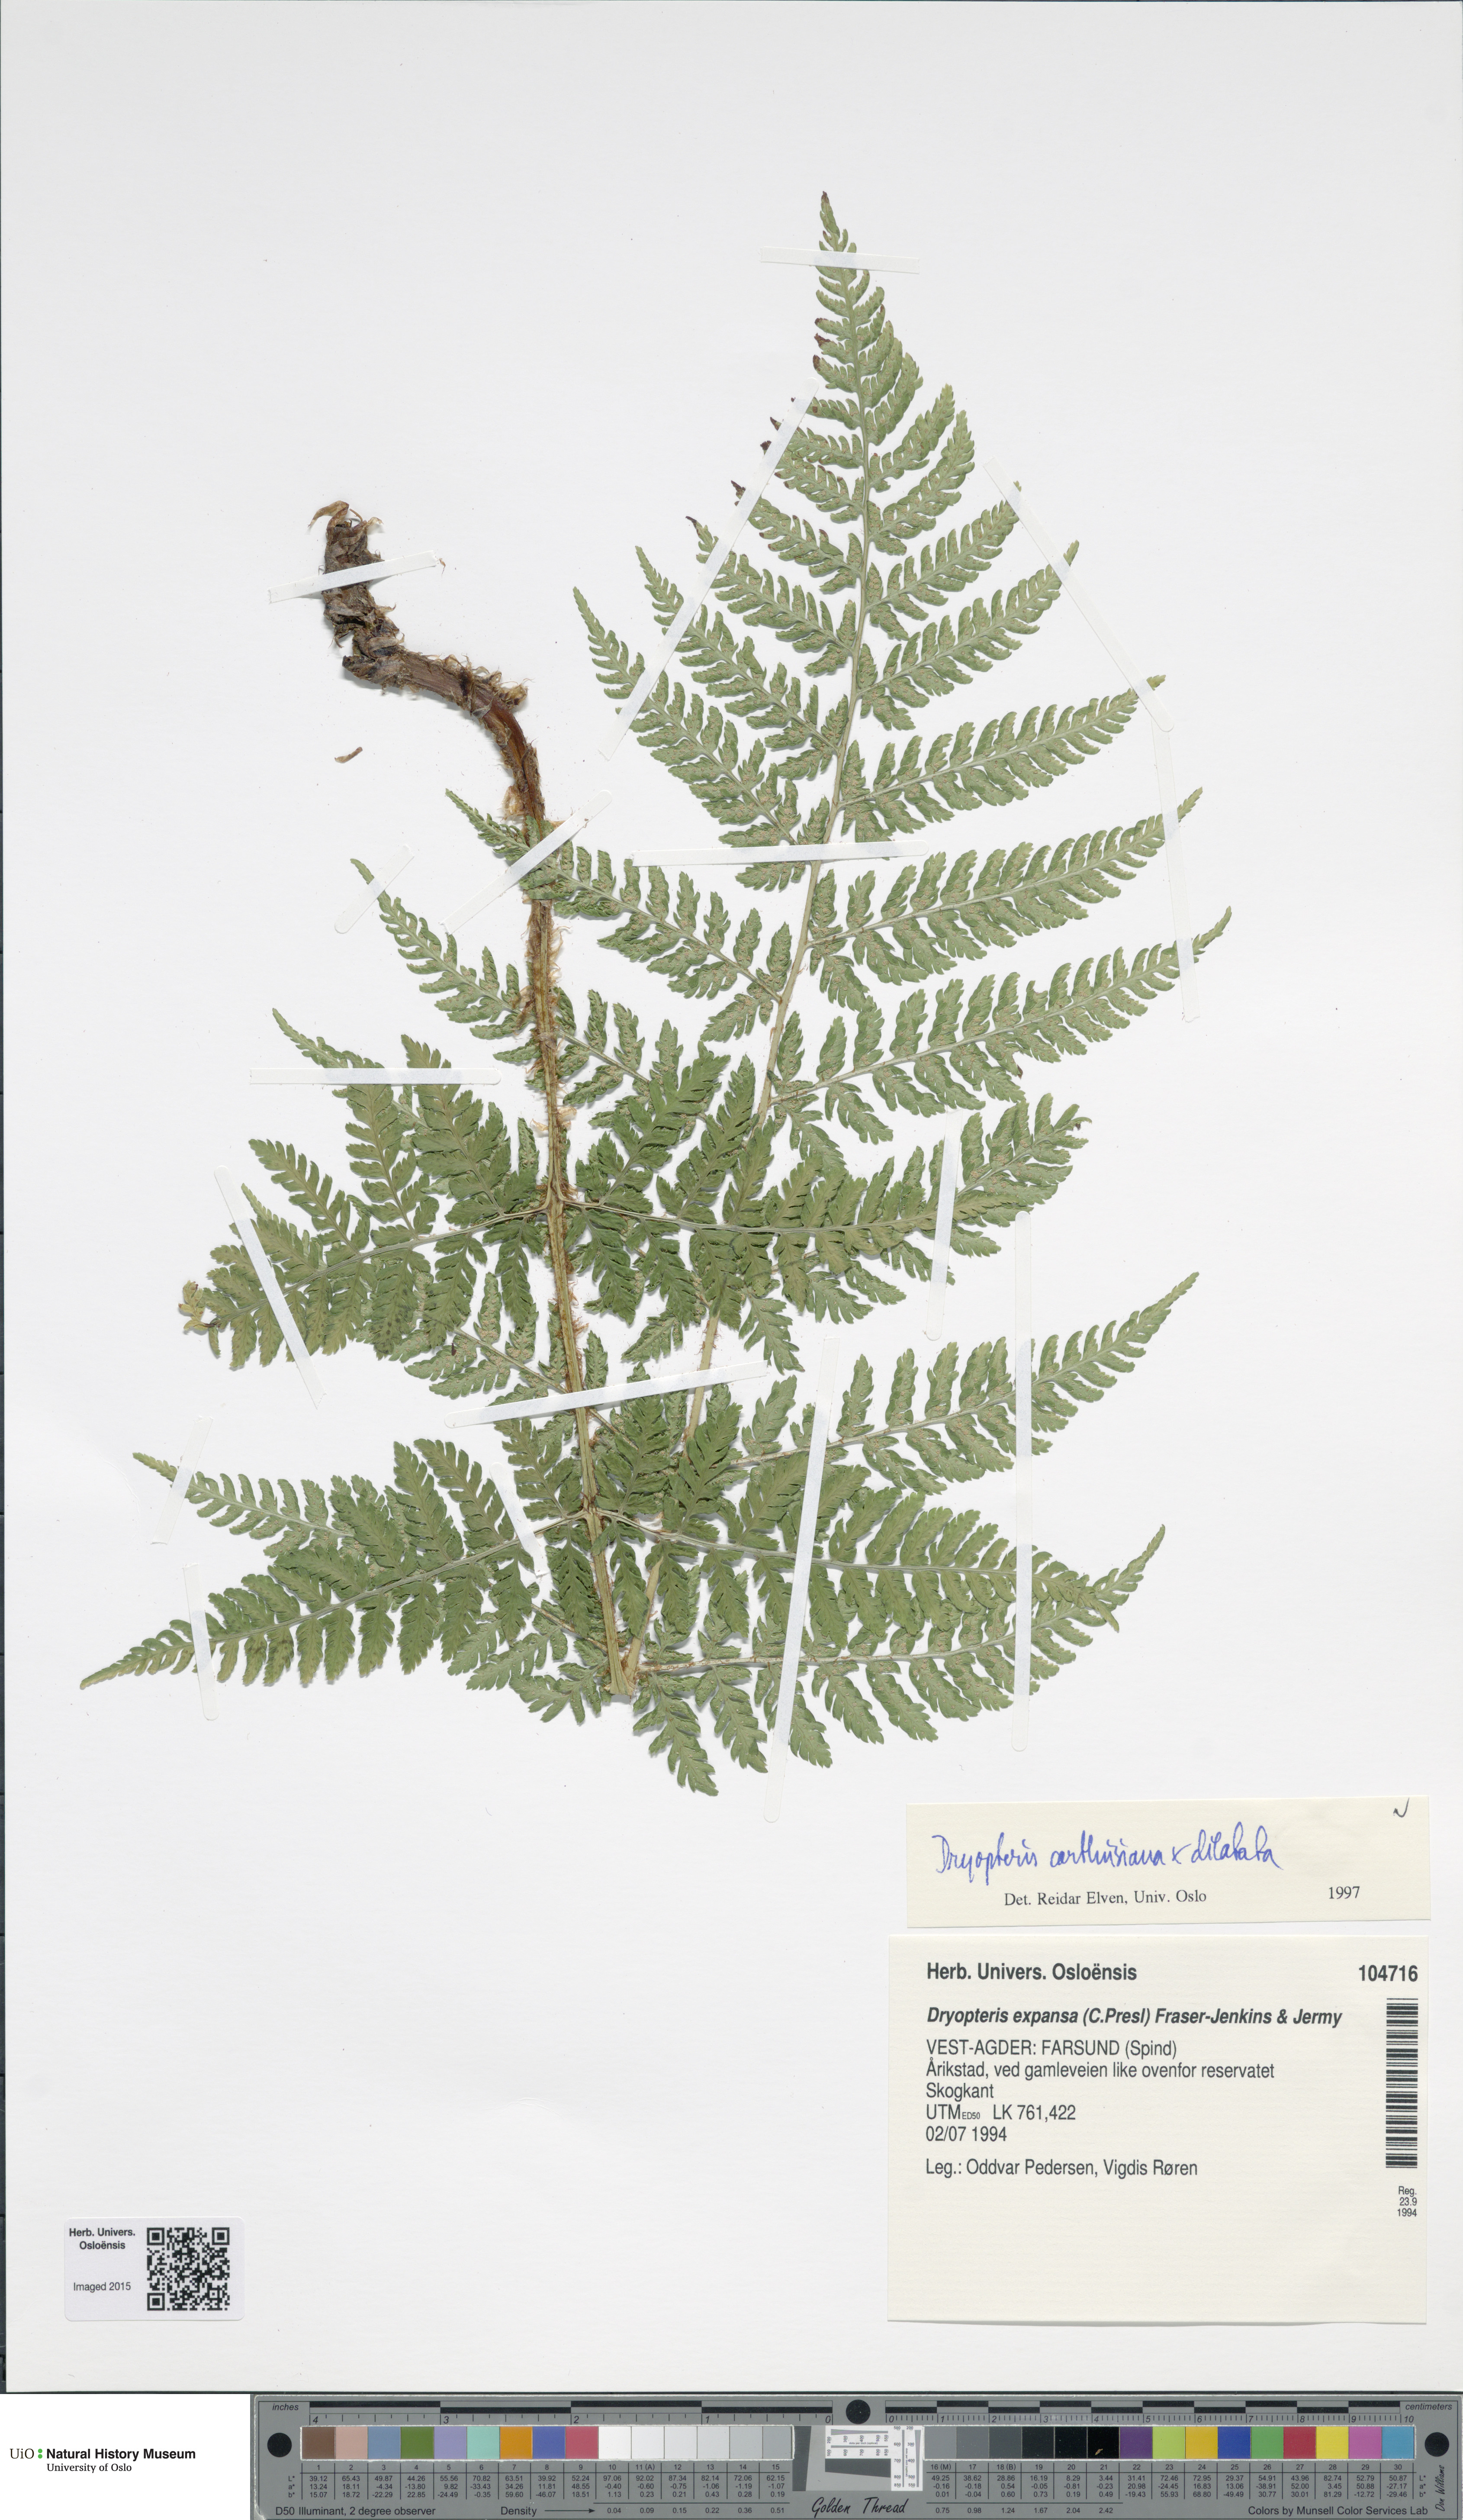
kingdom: Plantae
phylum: Tracheophyta
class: Polypodiopsida
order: Polypodiales
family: Dryopteridaceae
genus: Dryopteris
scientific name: Dryopteris
